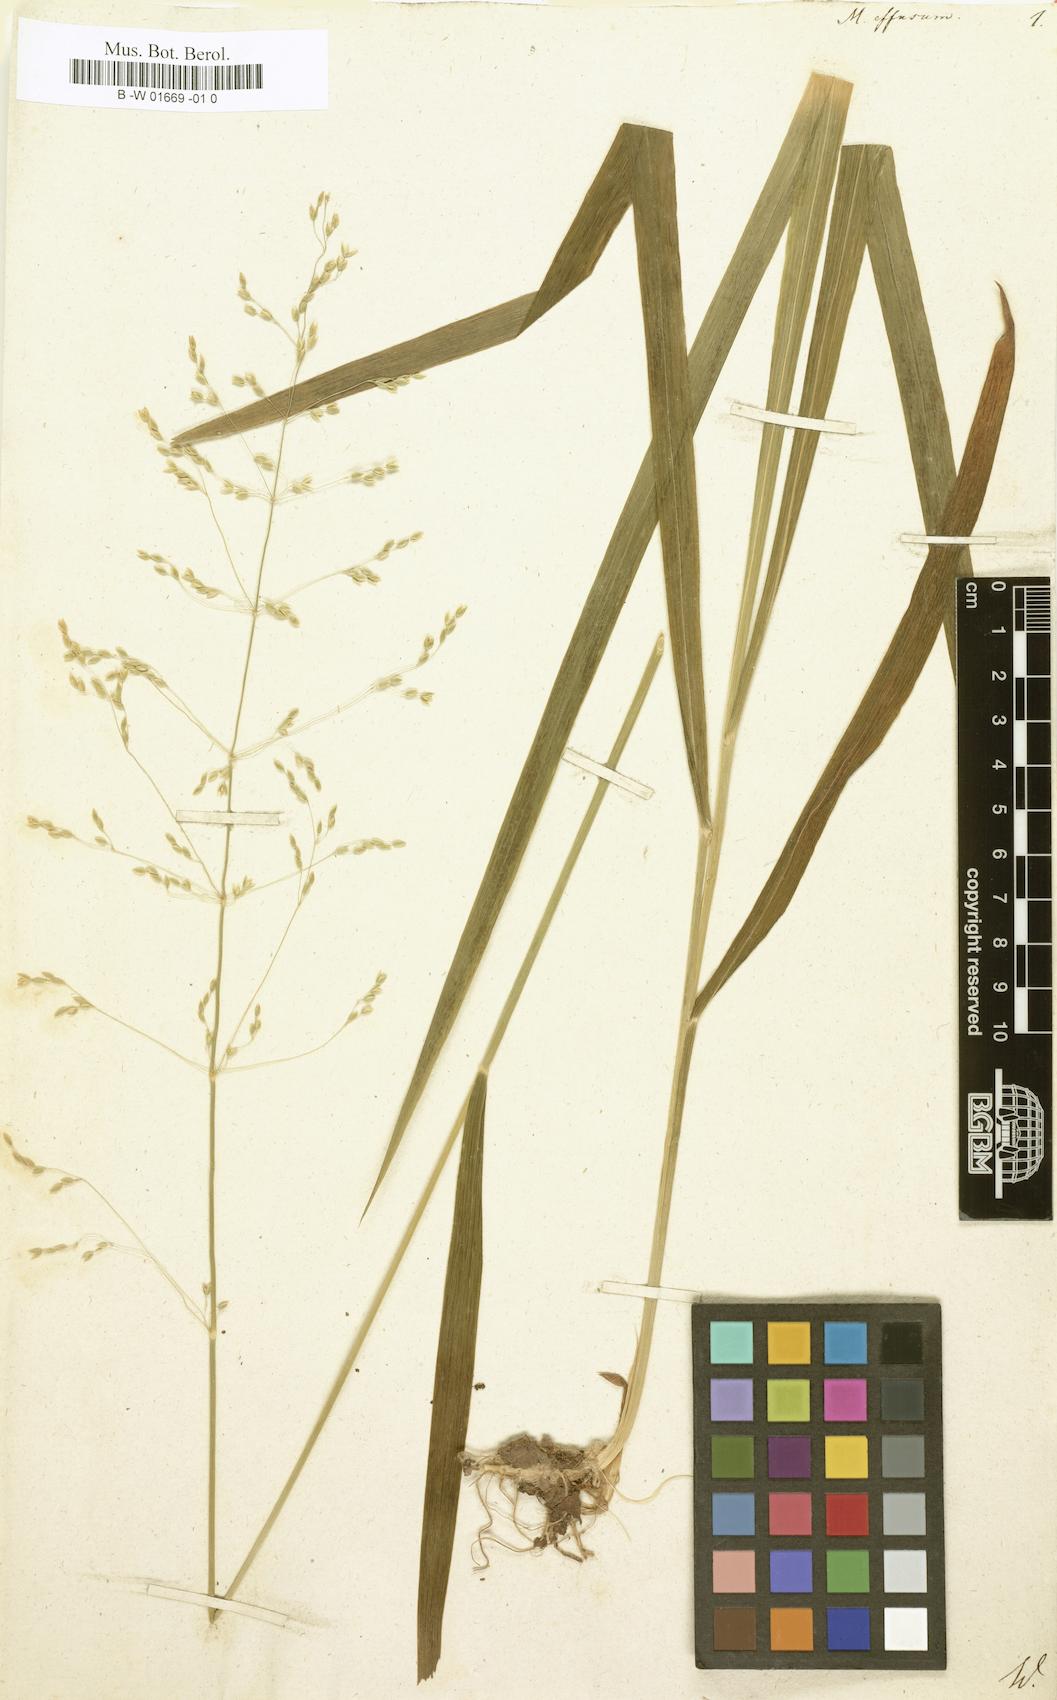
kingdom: Plantae
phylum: Tracheophyta
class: Liliopsida
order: Poales
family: Poaceae
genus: Milium
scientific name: Milium effusum
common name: Wood millet
